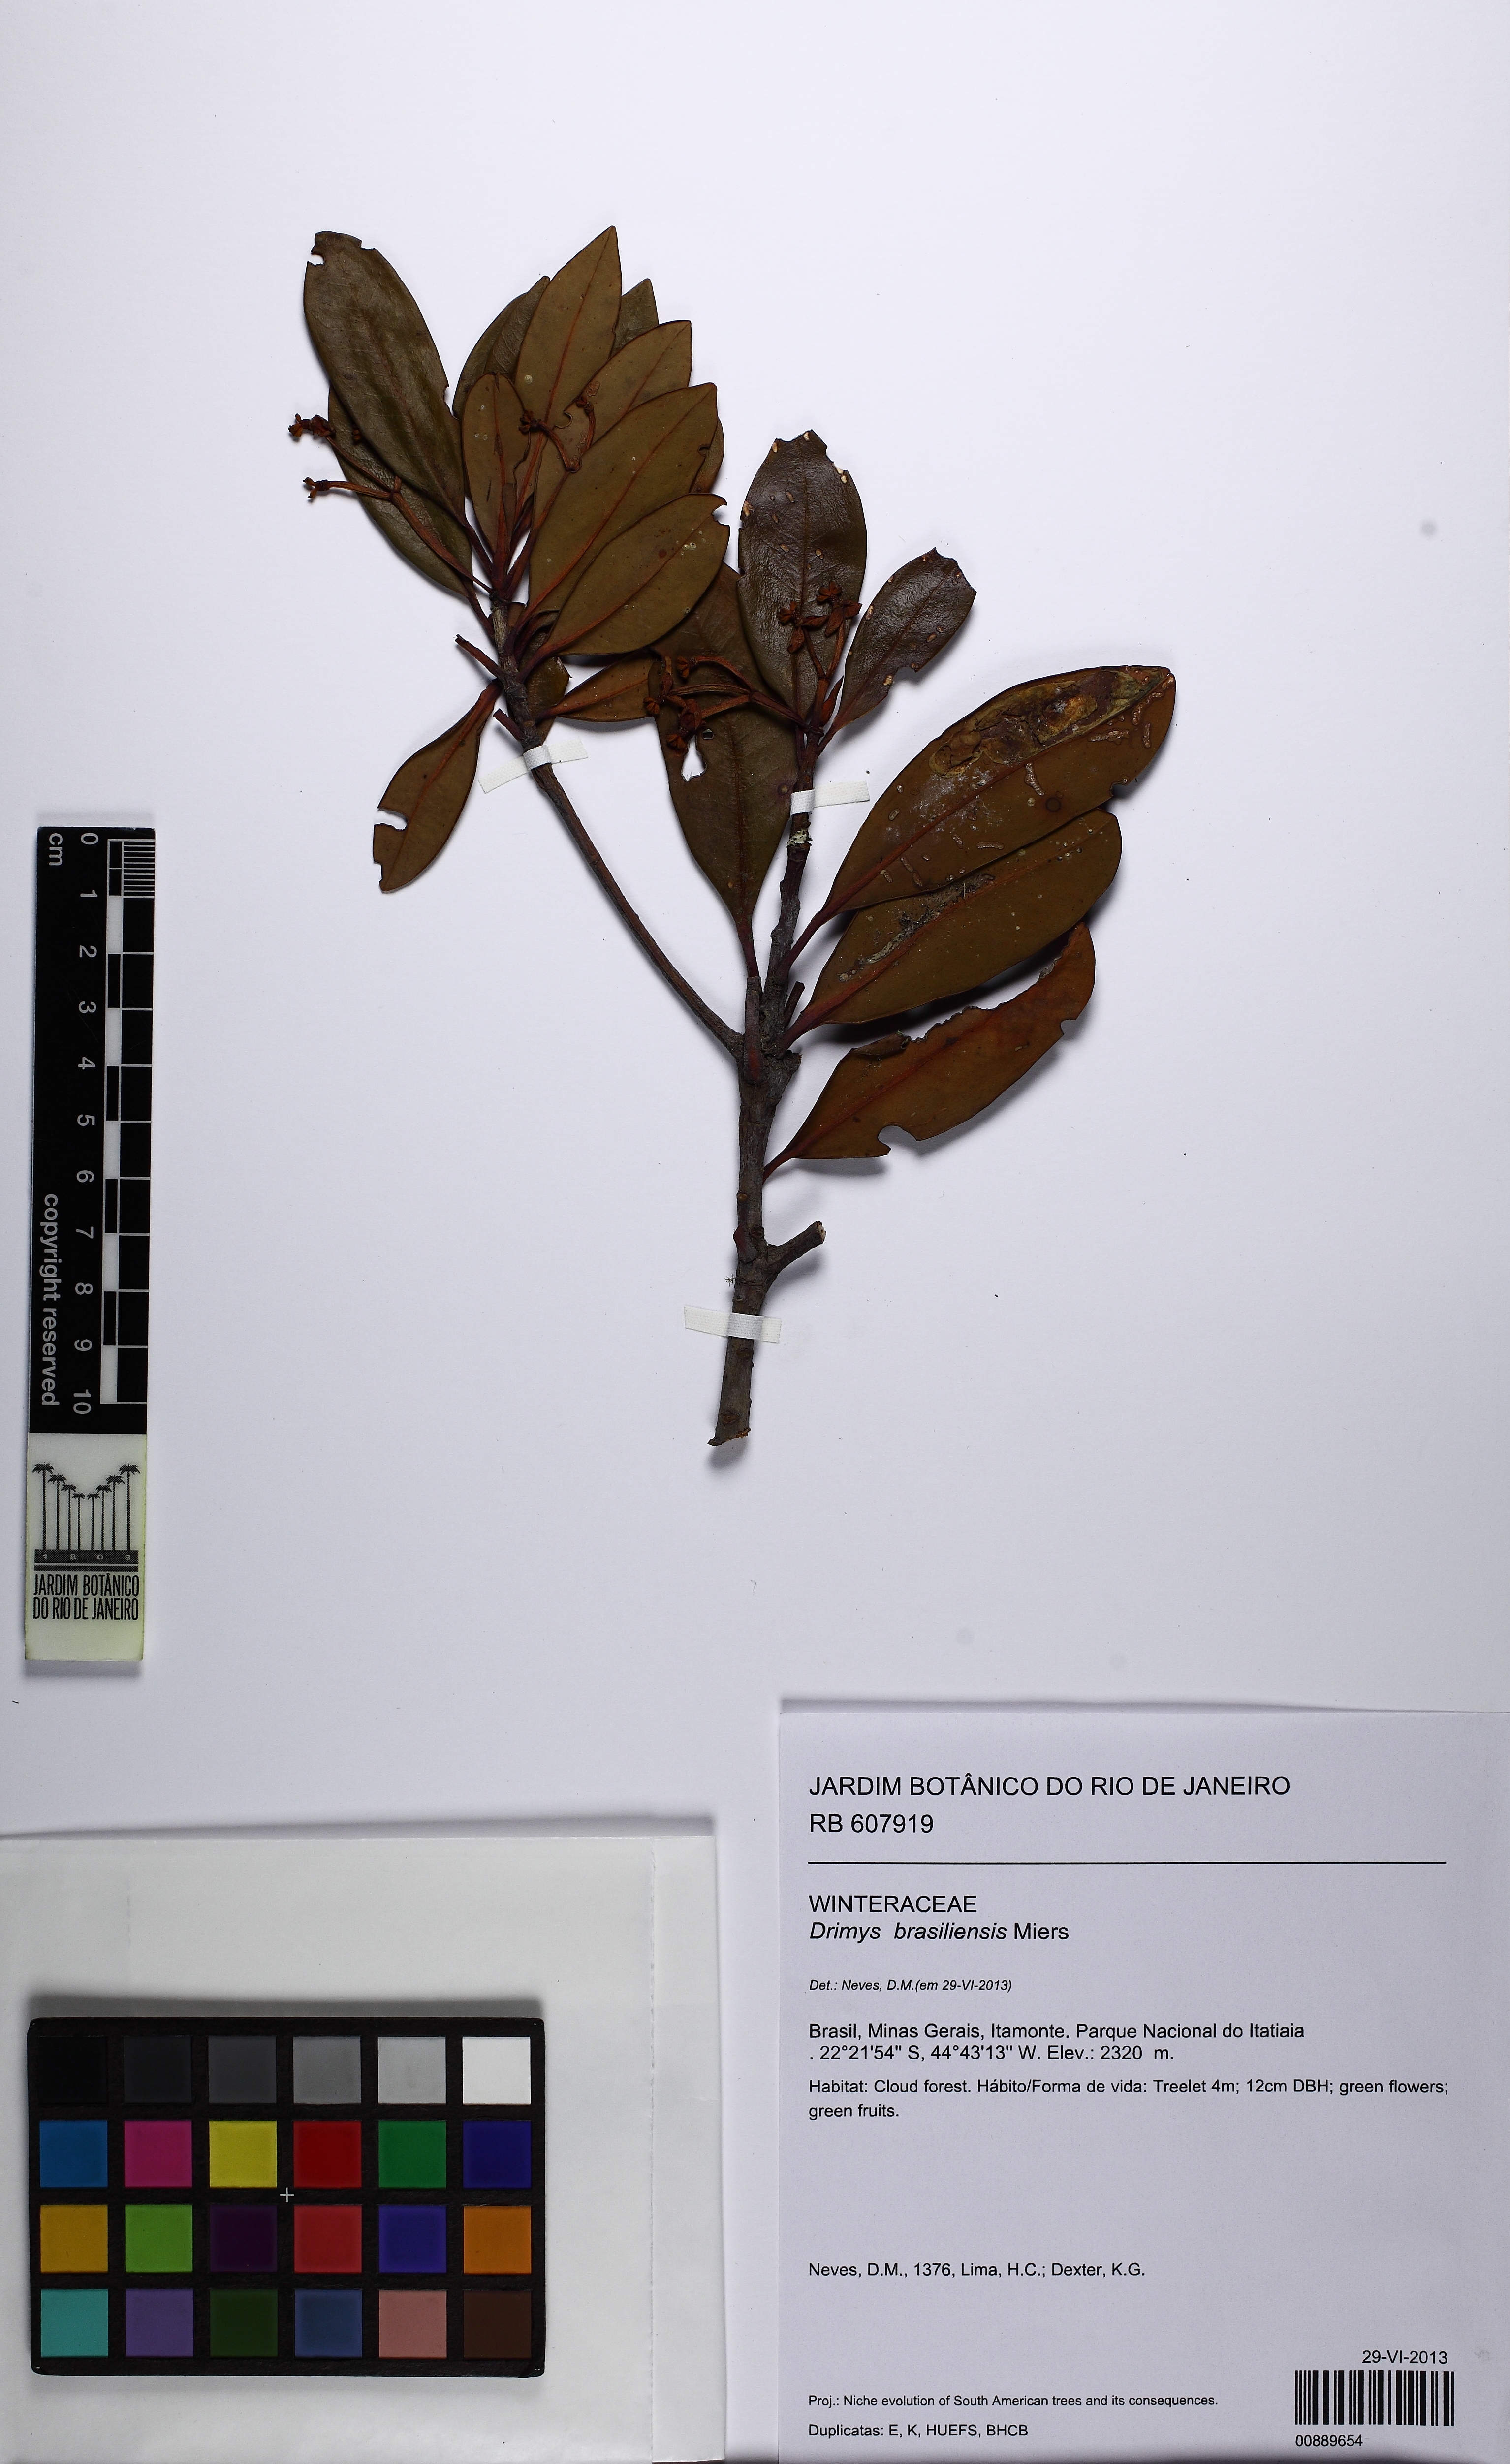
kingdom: Plantae
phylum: Tracheophyta
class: Magnoliopsida
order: Canellales
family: Winteraceae
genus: Drimys
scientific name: Drimys brasiliensis
